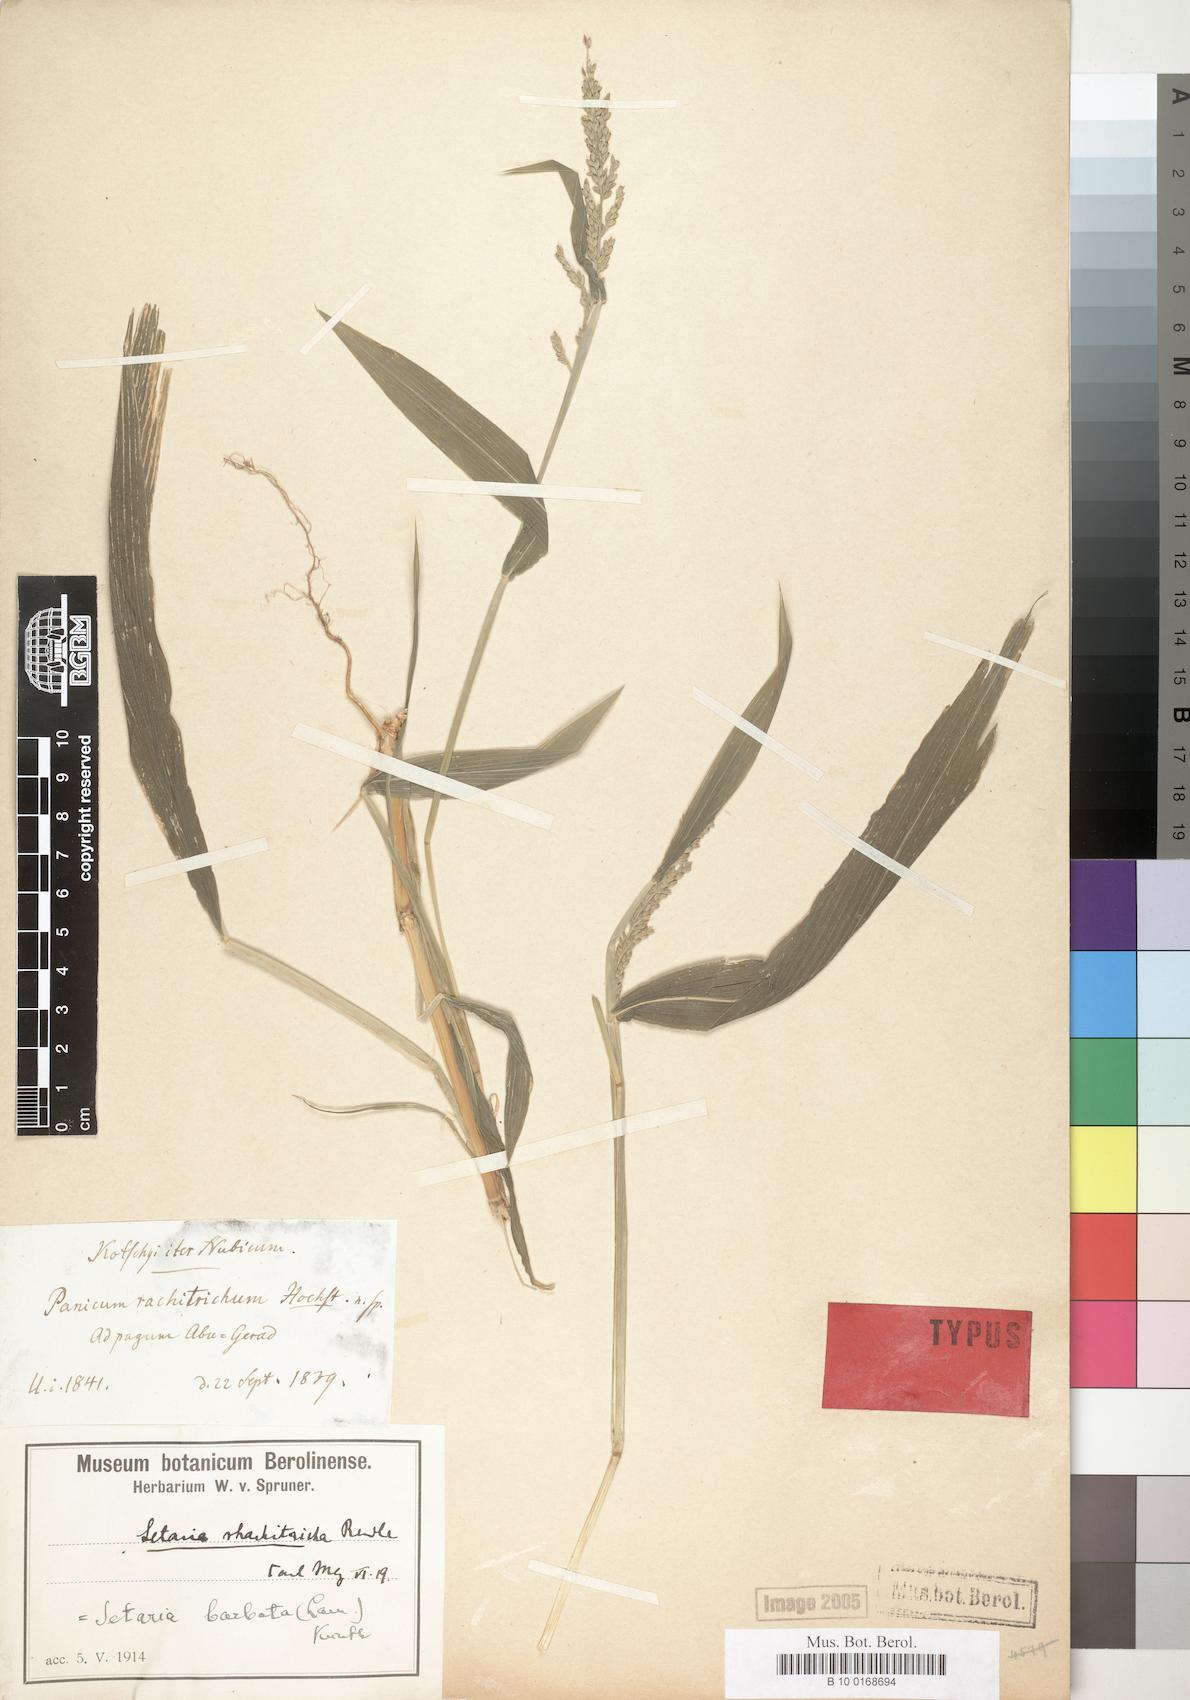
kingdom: Plantae
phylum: Tracheophyta
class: Liliopsida
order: Poales
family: Poaceae
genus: Setaria
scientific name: Setaria barbata
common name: East indian bristlegrass
